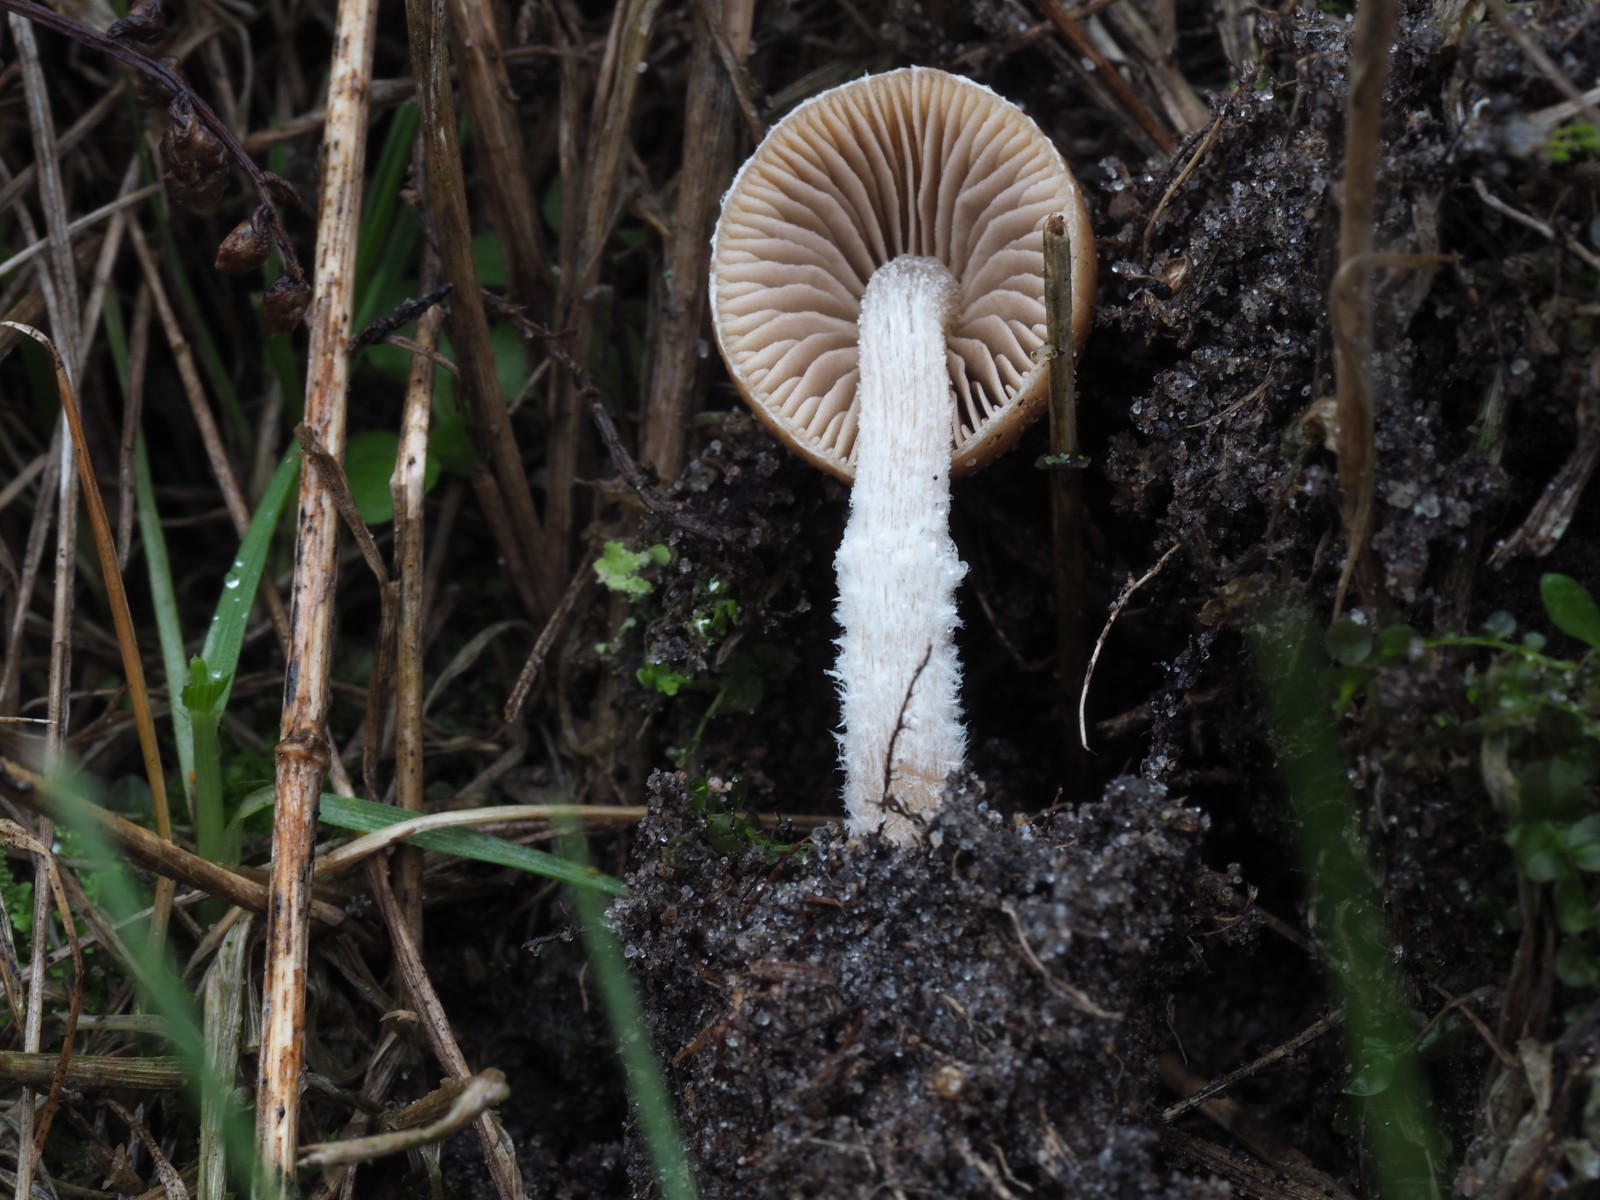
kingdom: Fungi
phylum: Basidiomycota
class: Agaricomycetes
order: Agaricales
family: Psathyrellaceae
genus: Psathyrella
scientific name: Psathyrella
